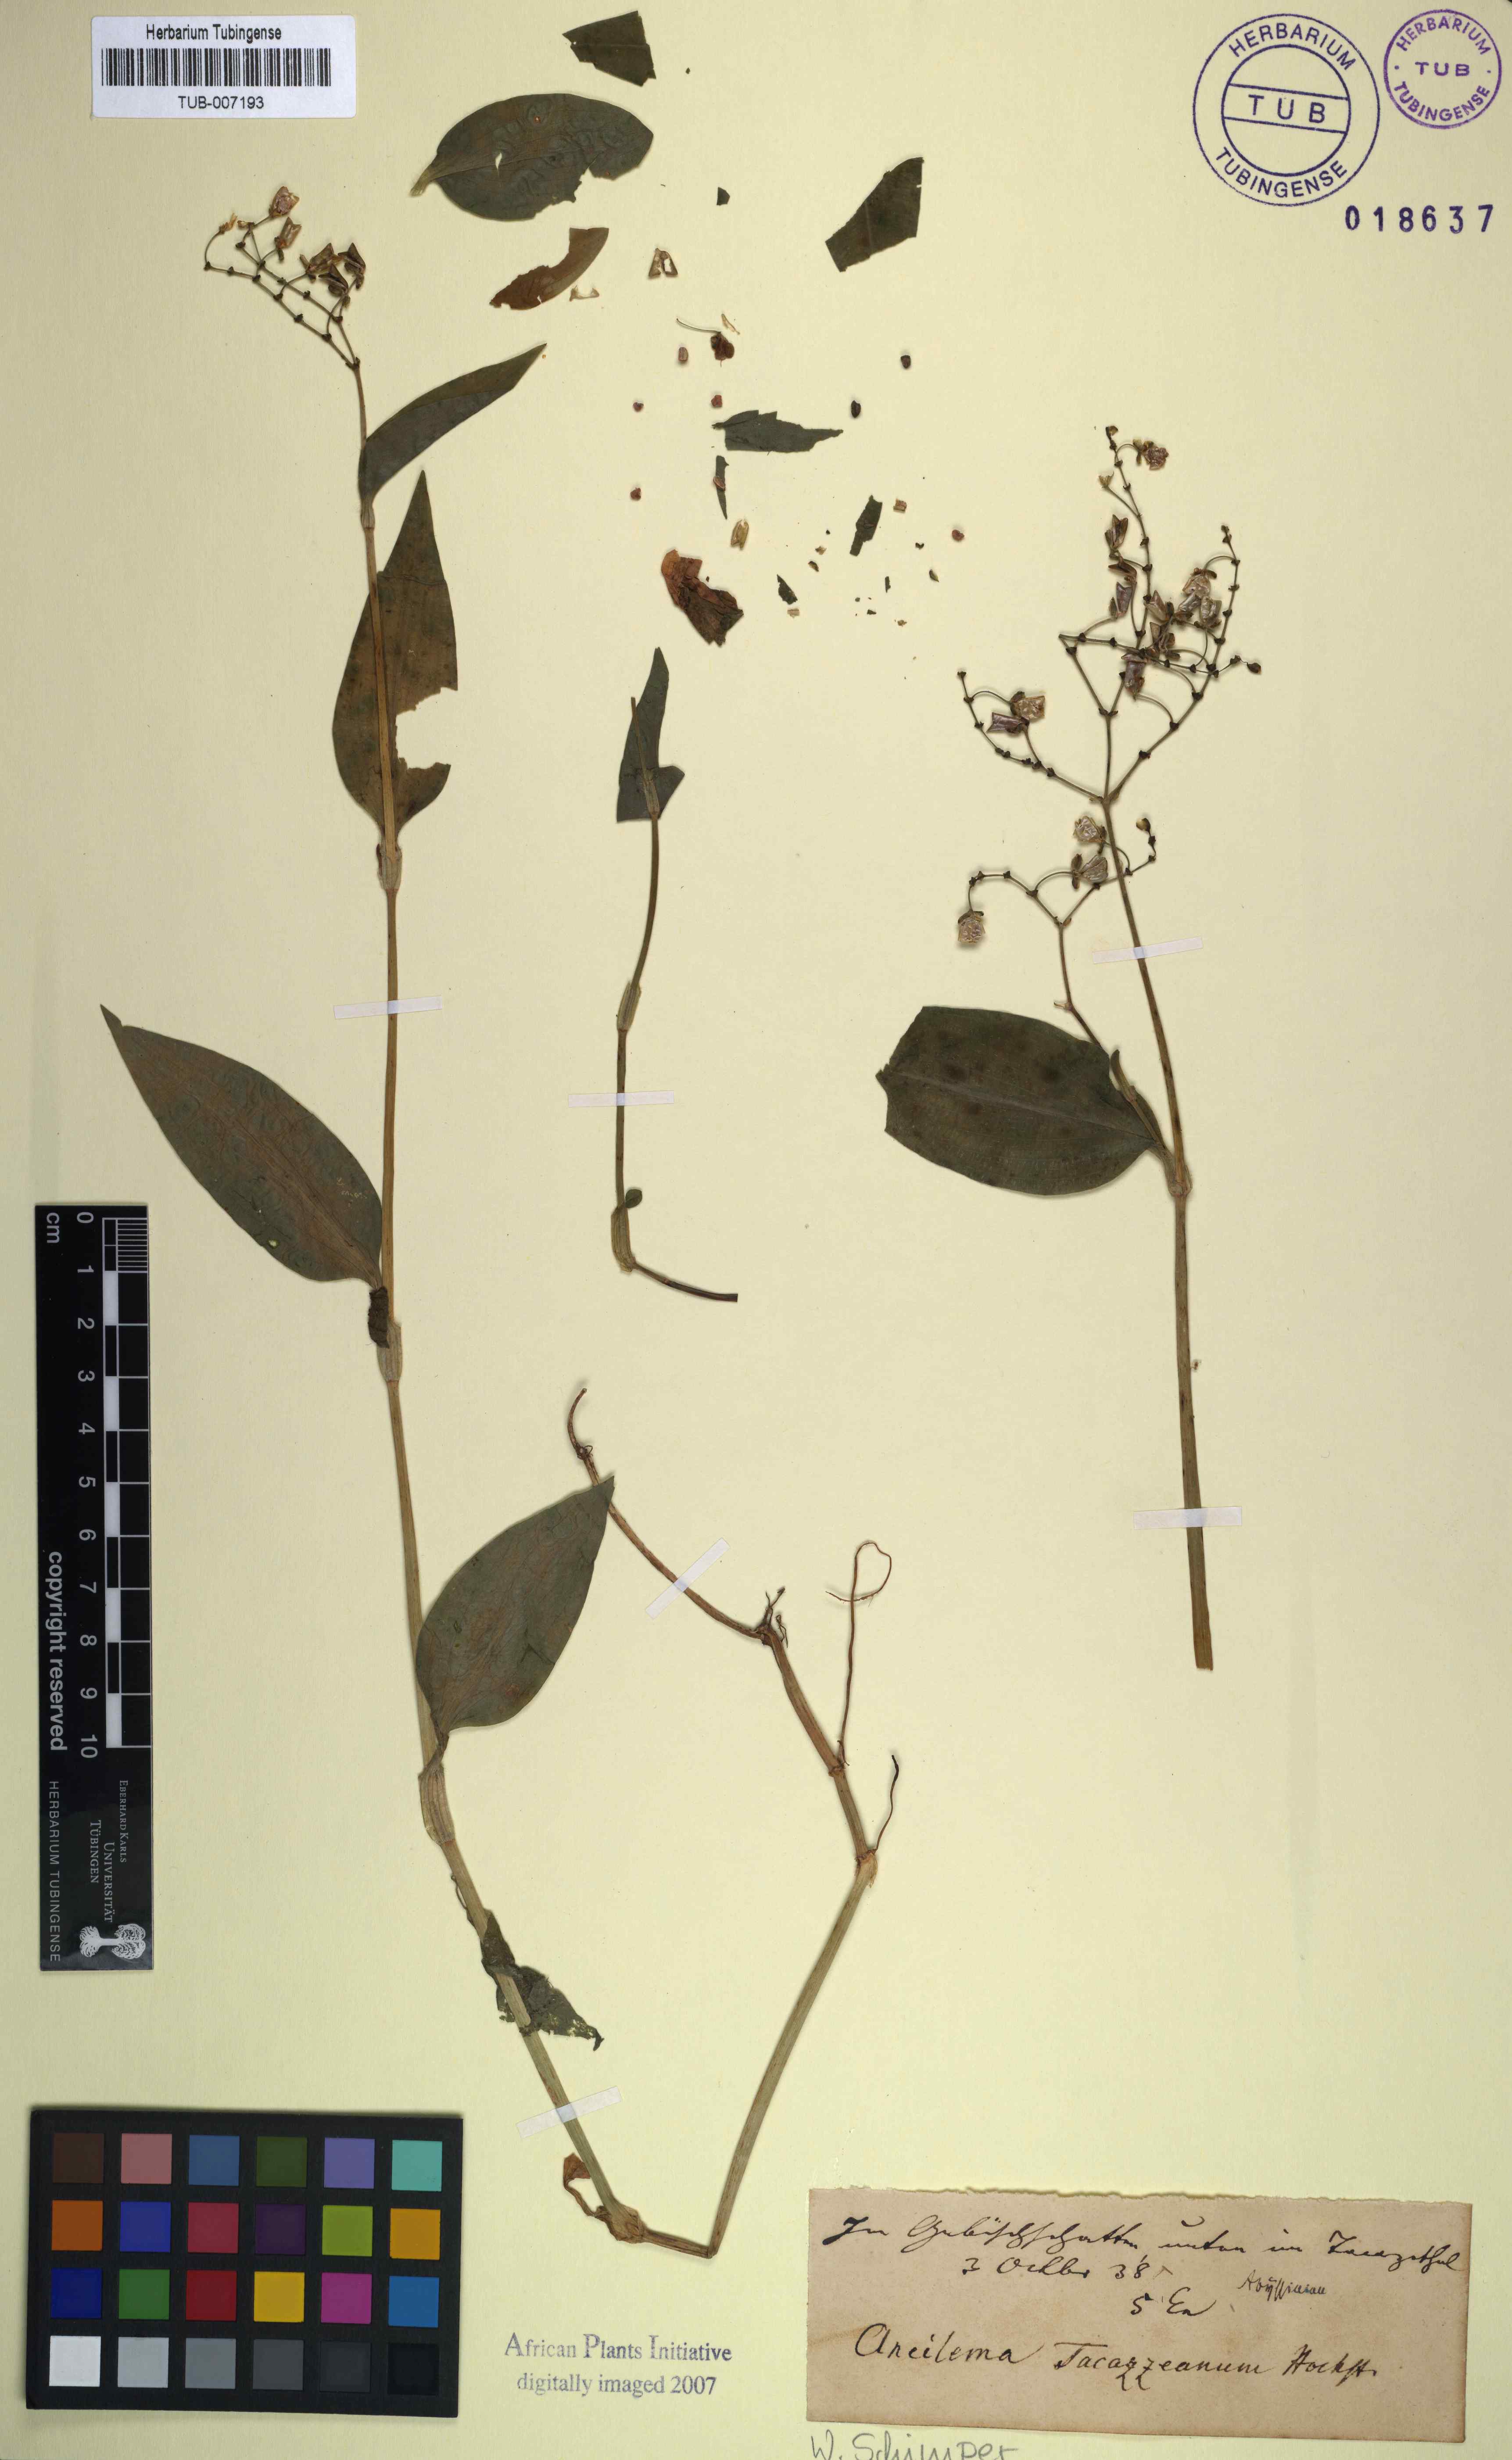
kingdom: Plantae
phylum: Tracheophyta
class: Liliopsida
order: Commelinales
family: Commelinaceae
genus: Commelina
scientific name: Commelina
